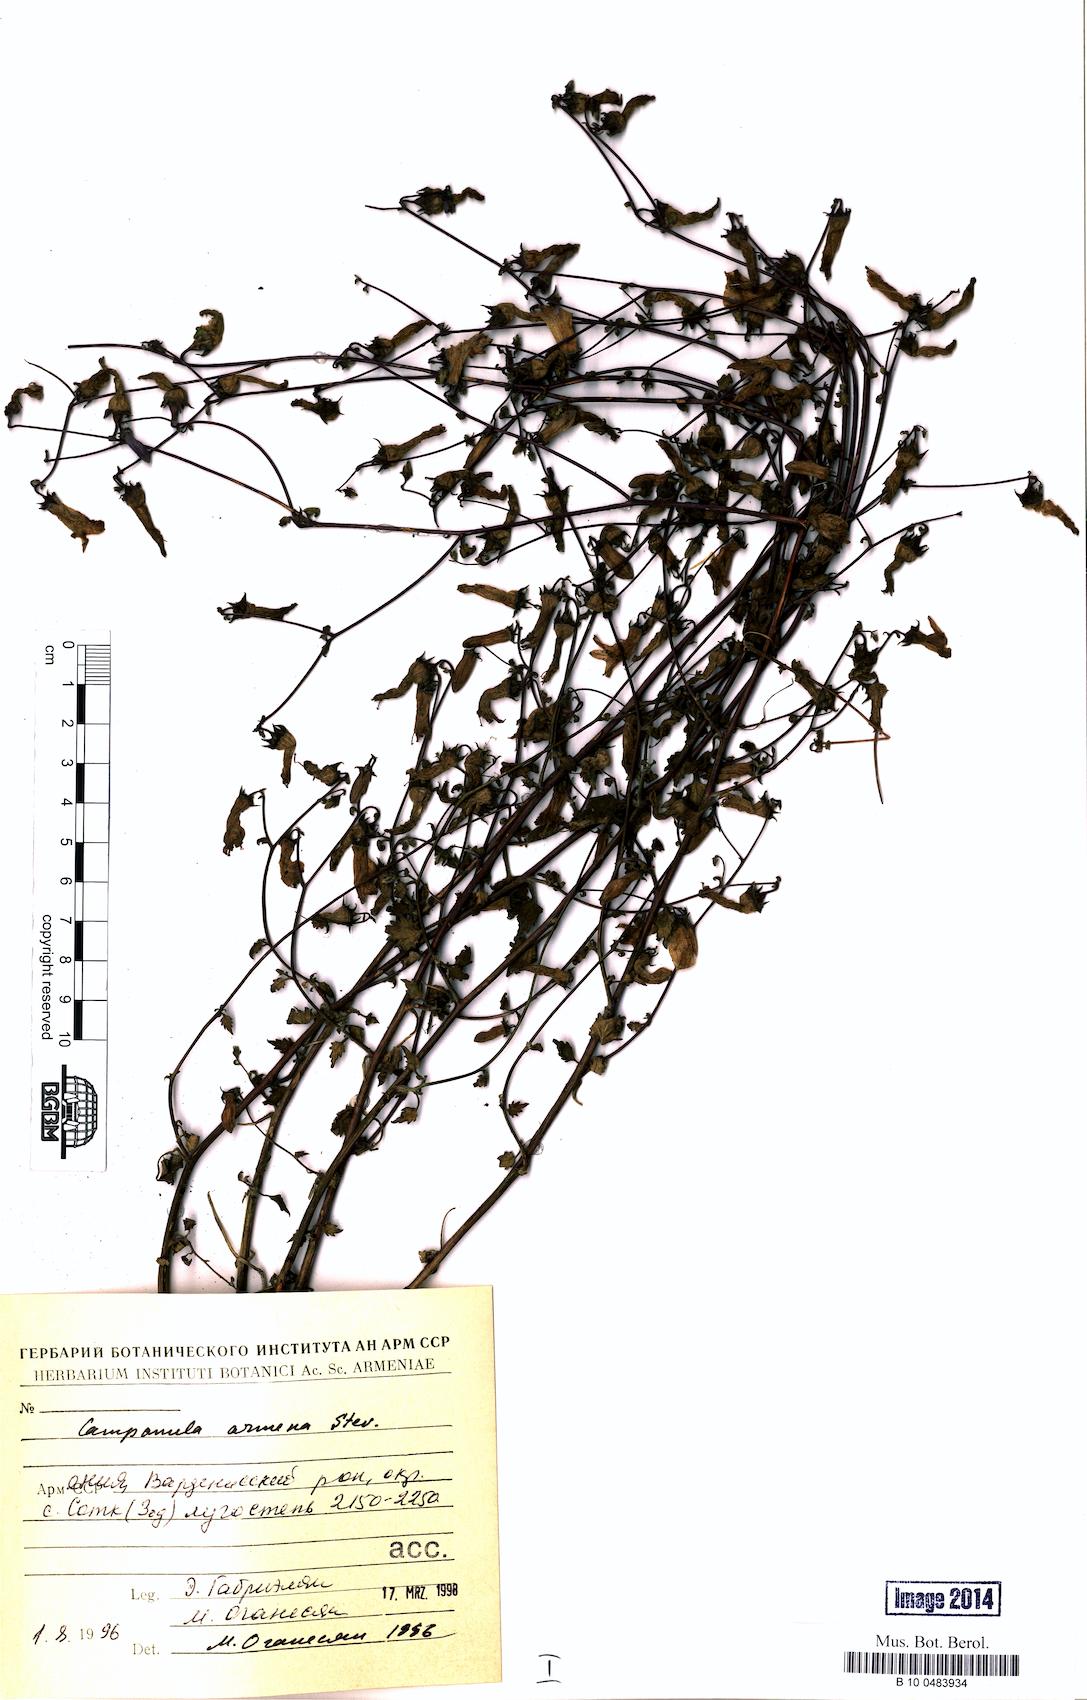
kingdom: Plantae
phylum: Tracheophyta
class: Magnoliopsida
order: Asterales
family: Campanulaceae
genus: Campanula
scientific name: Campanula armena
